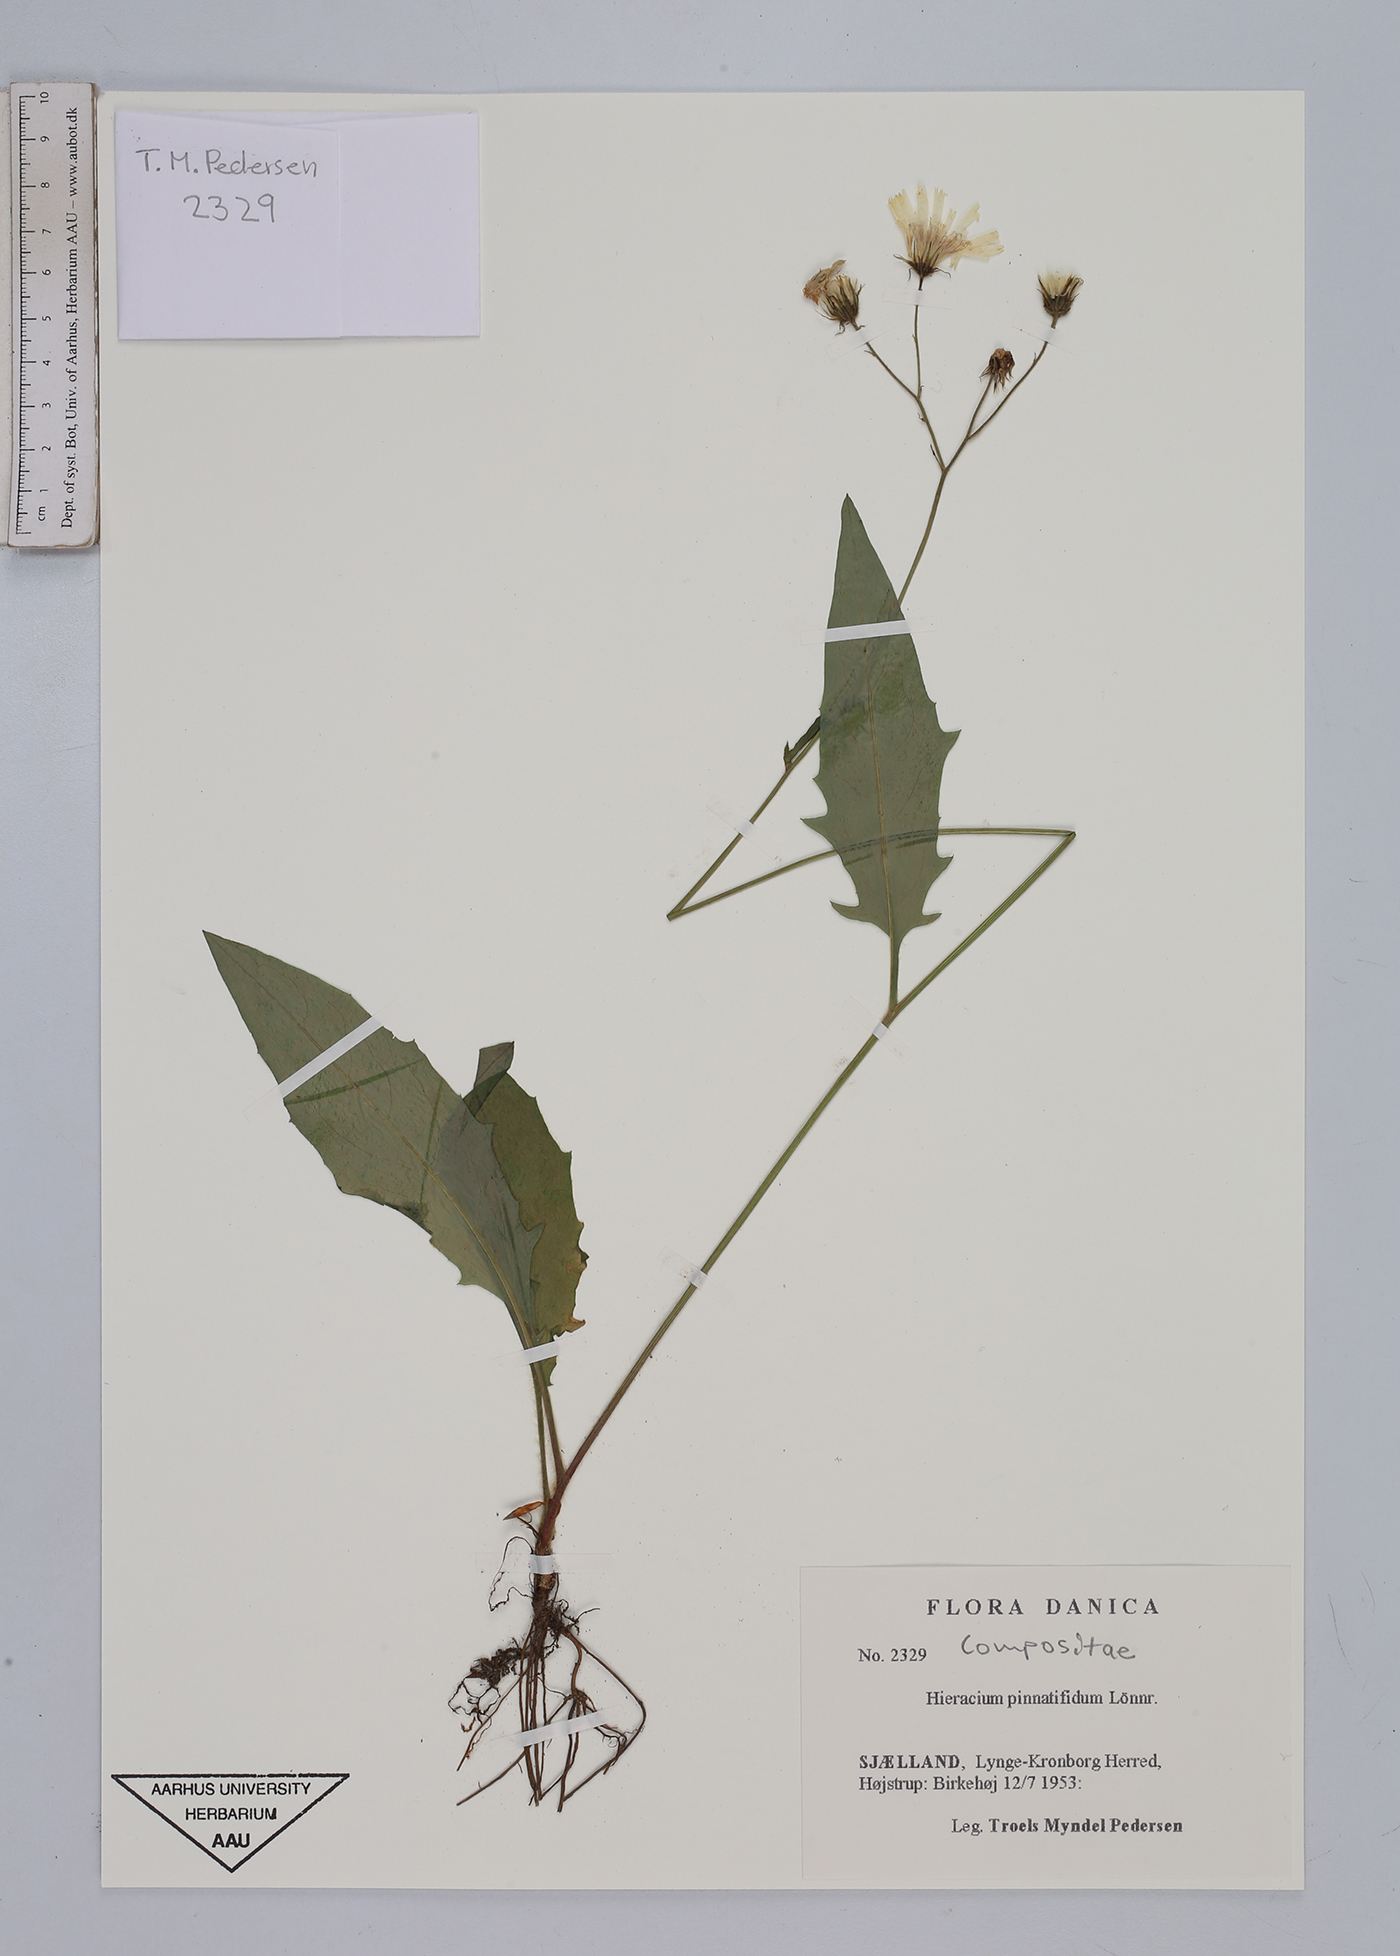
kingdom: Plantae
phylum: Tracheophyta
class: Magnoliopsida
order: Asterales
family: Asteraceae
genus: Hieracium
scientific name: Hieracium lachenalii
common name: Common hawkweed
